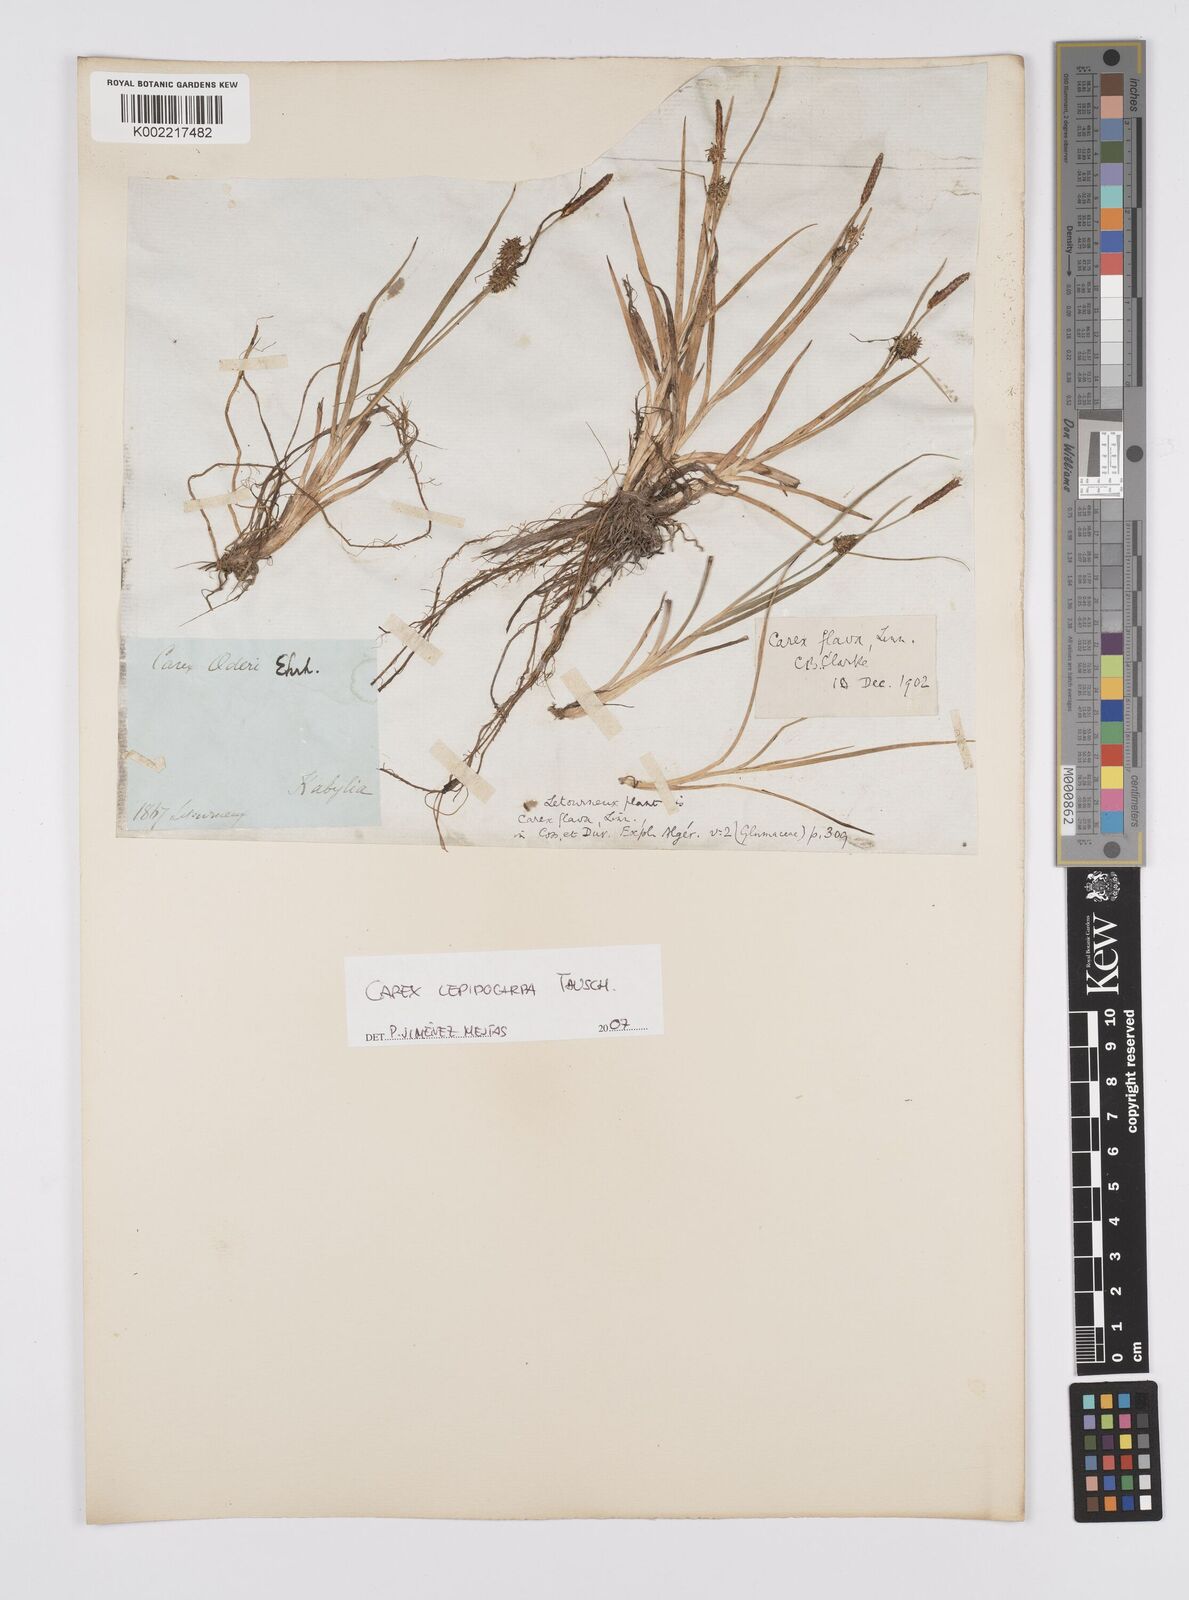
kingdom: Plantae
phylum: Tracheophyta
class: Liliopsida
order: Poales
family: Cyperaceae
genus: Carex
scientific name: Carex demissa
